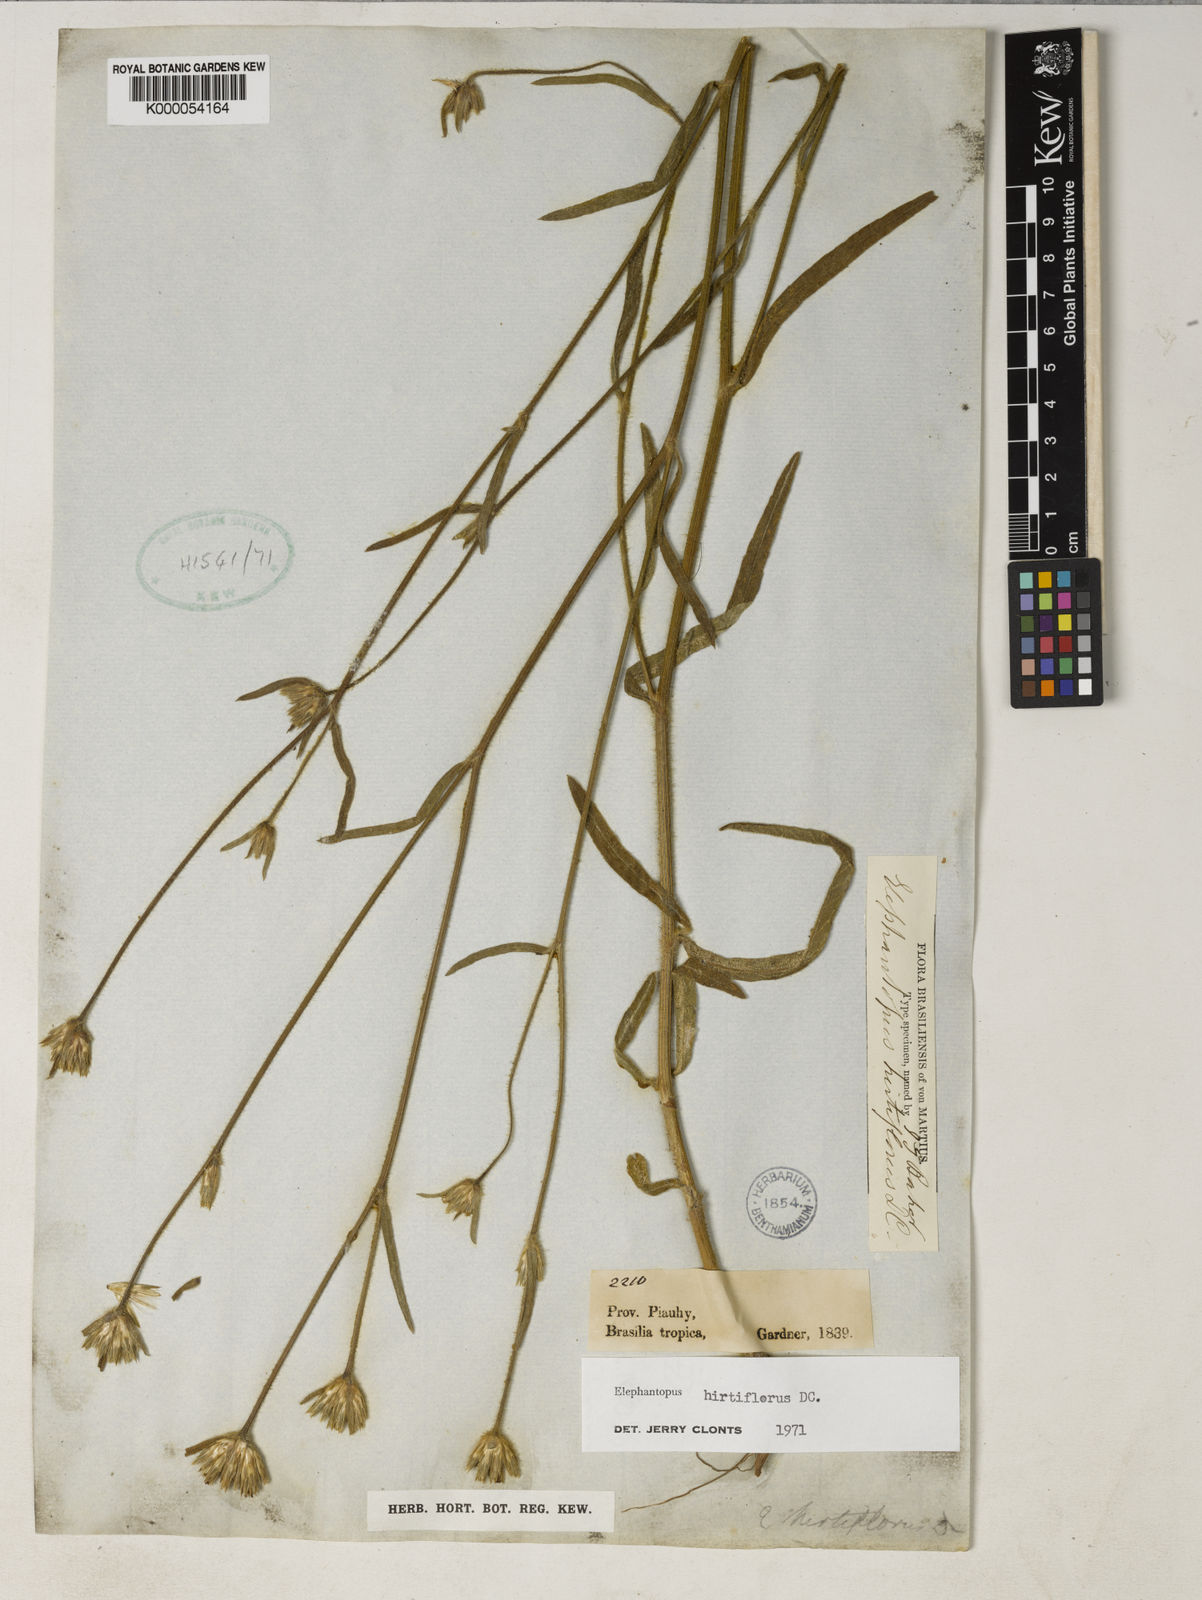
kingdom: Plantae
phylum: Tracheophyta
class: Magnoliopsida
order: Asterales
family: Asteraceae
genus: Elephantopus
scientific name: Elephantopus hirtiflorus
